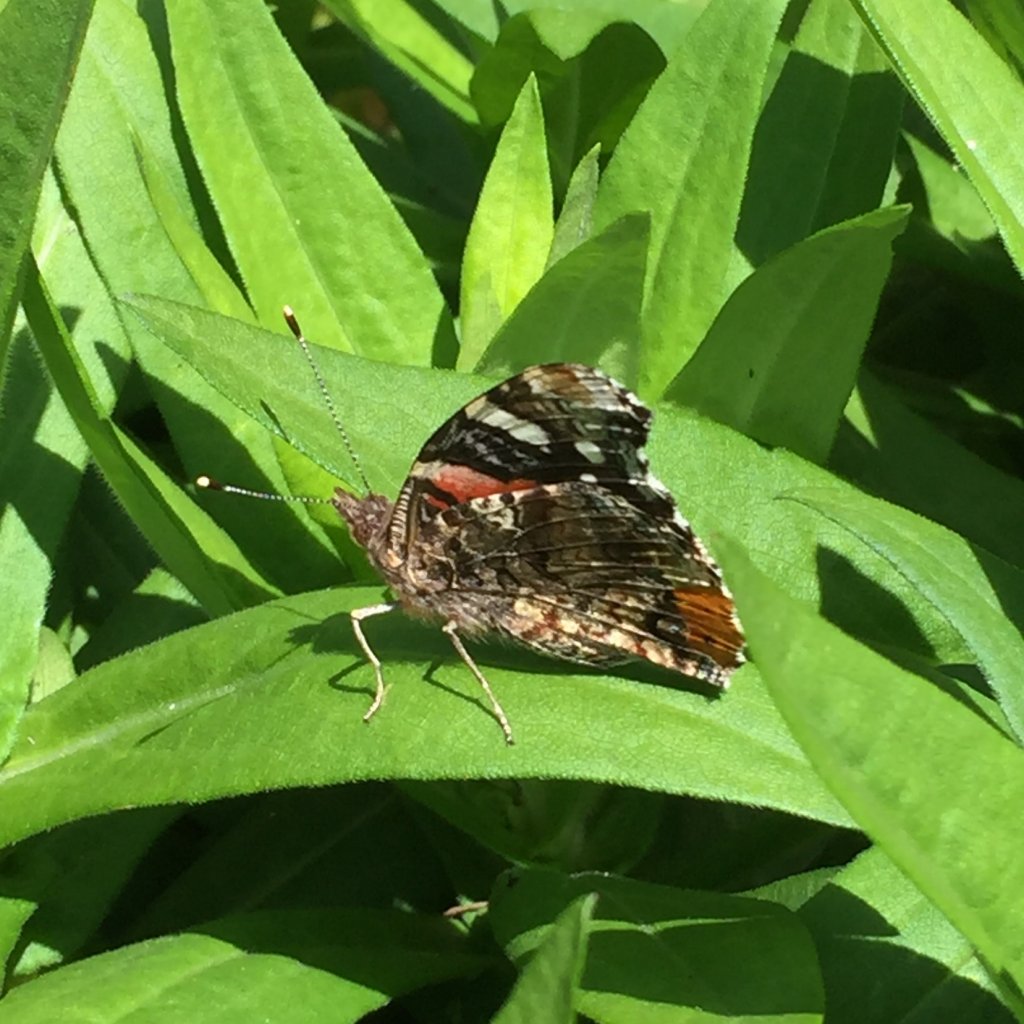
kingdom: Animalia
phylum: Arthropoda
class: Insecta
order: Lepidoptera
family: Nymphalidae
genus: Vanessa
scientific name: Vanessa atalanta
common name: Red Admiral
